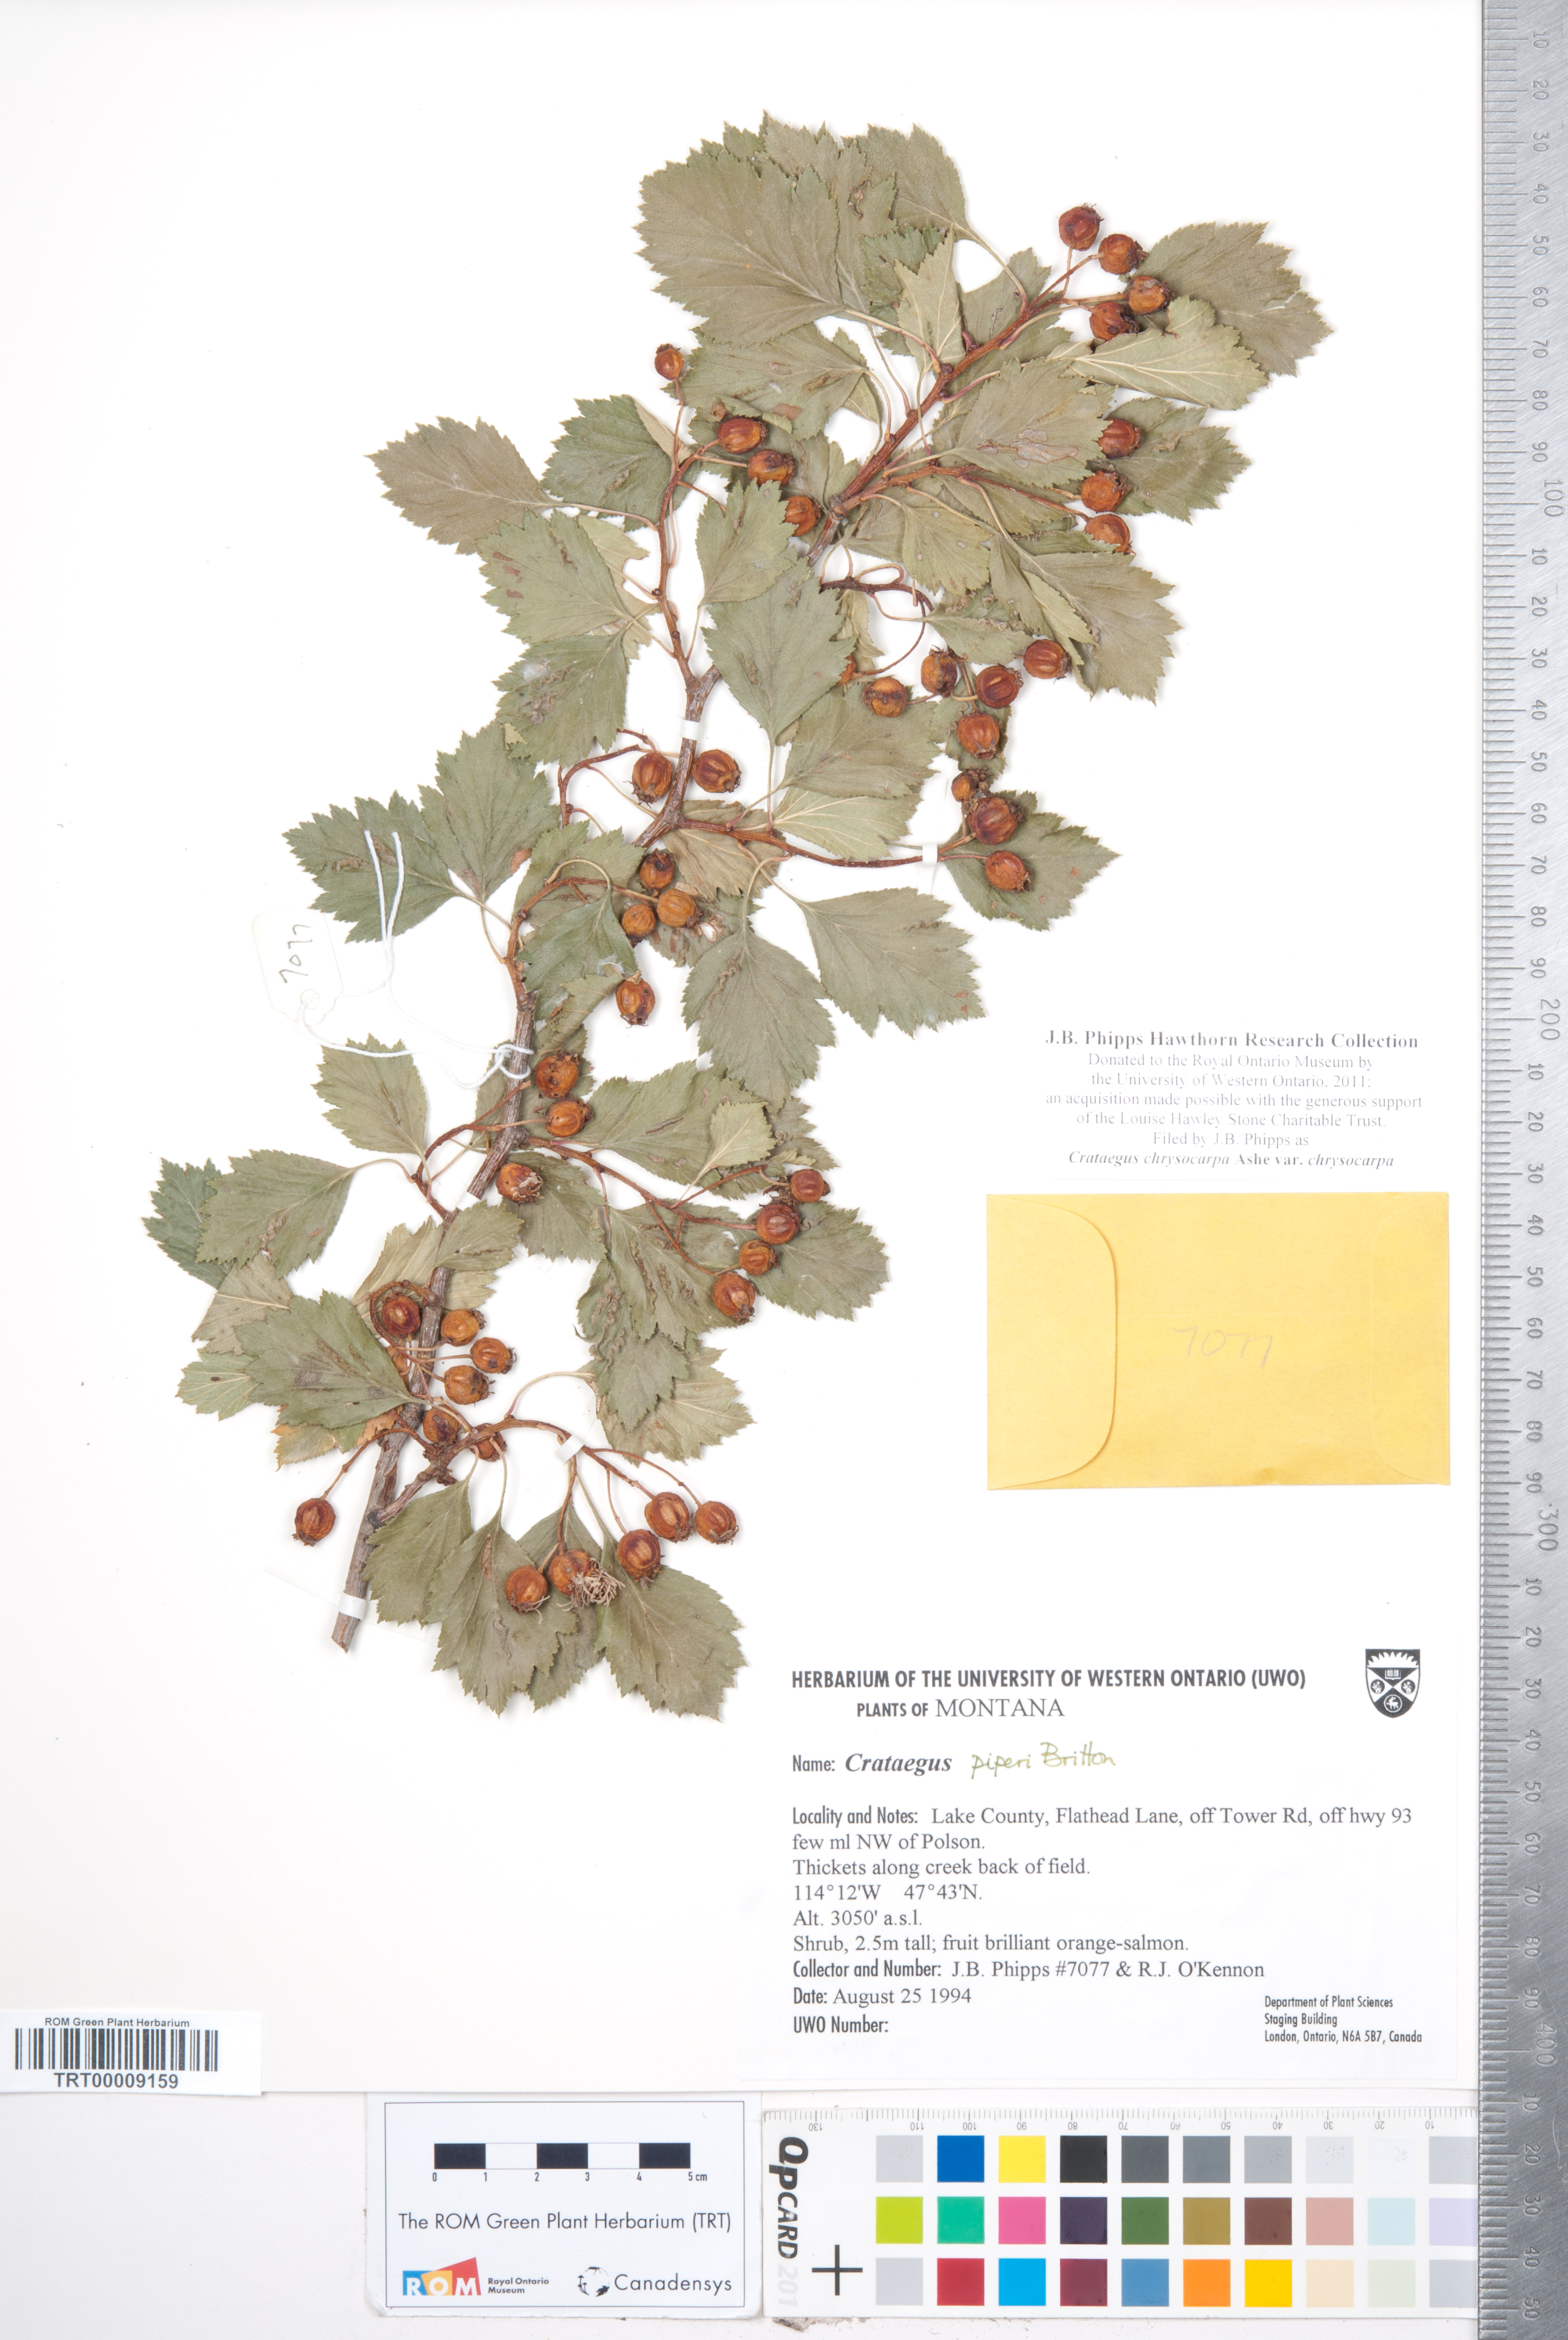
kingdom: Plantae
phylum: Tracheophyta
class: Magnoliopsida
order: Rosales
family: Rosaceae
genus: Crataegus
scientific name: Crataegus chrysocarpa
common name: Fire-berry hawthorn
